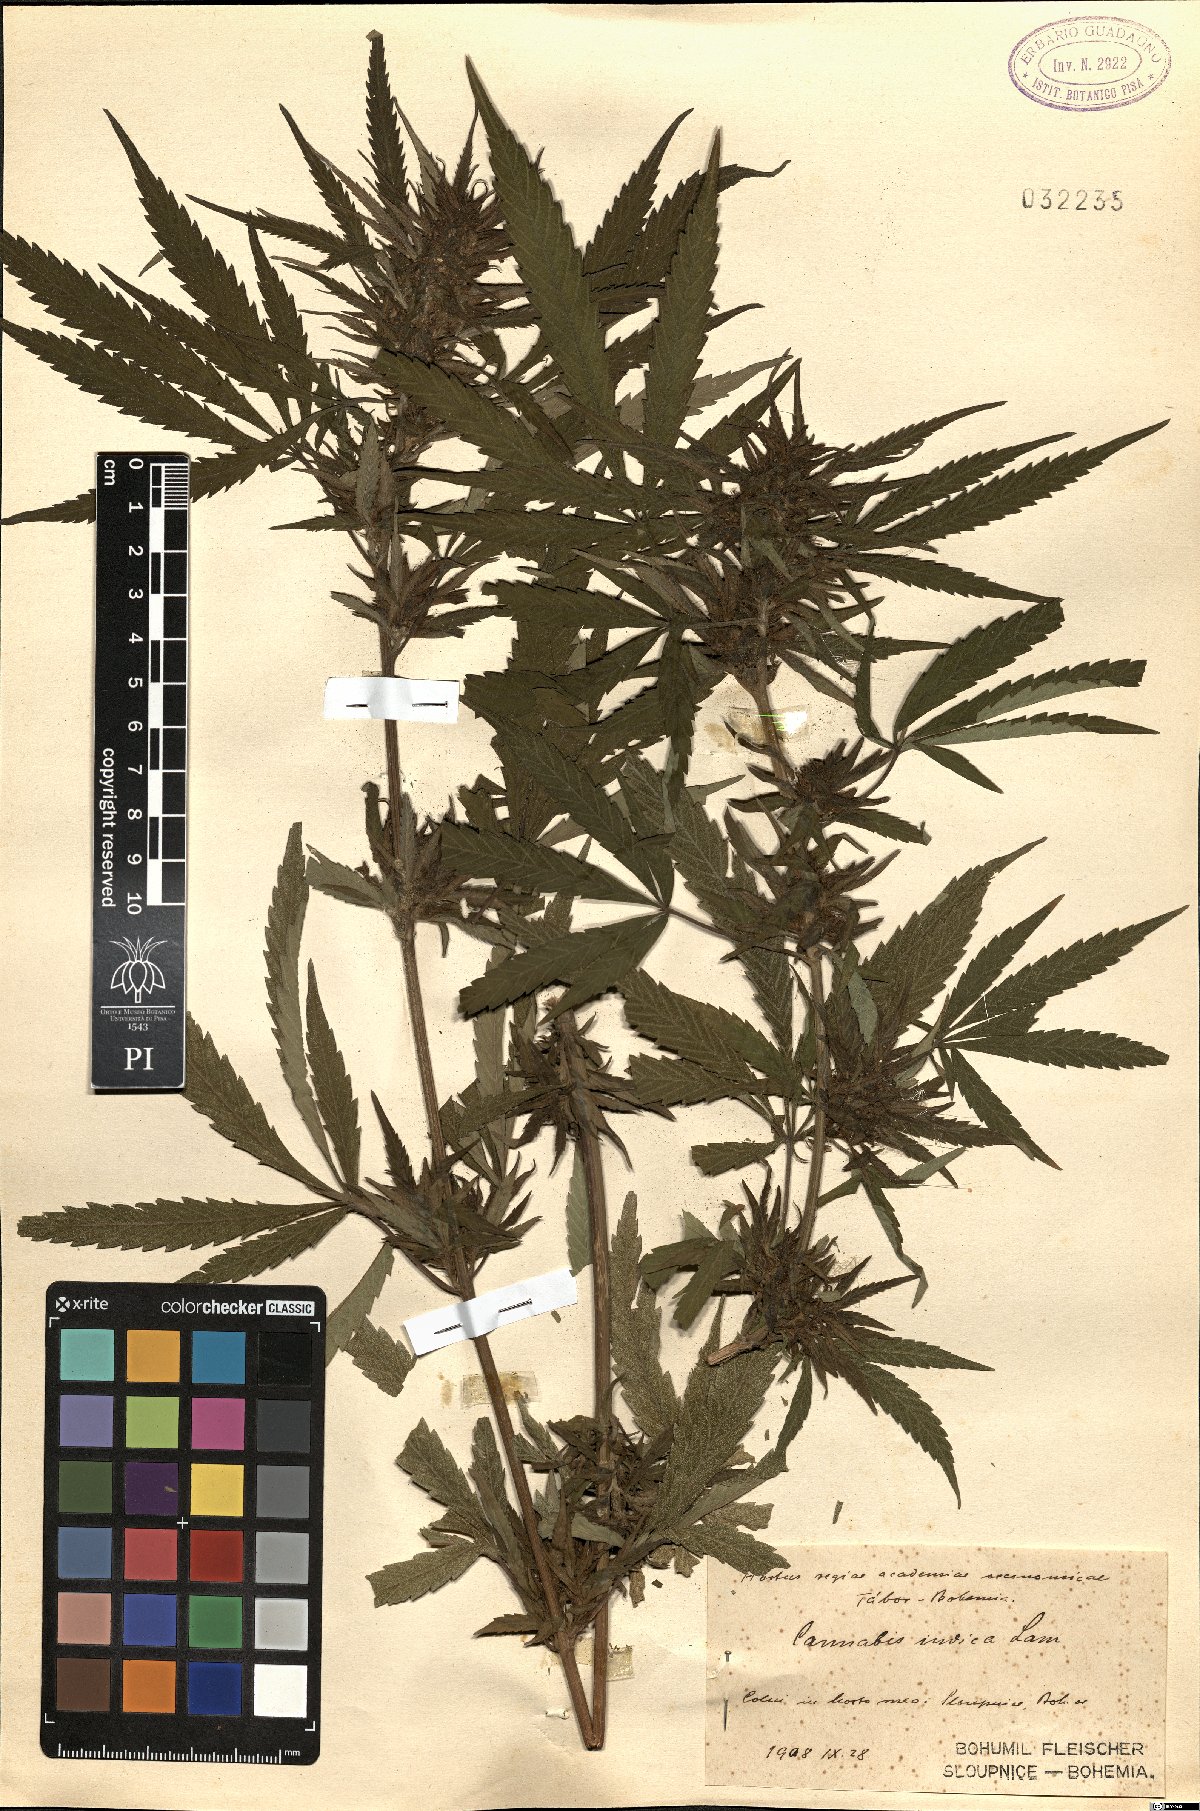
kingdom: Plantae
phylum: Tracheophyta
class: Magnoliopsida
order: Rosales
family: Cannabaceae
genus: Cannabis
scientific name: Cannabis sativa
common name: Hemp
